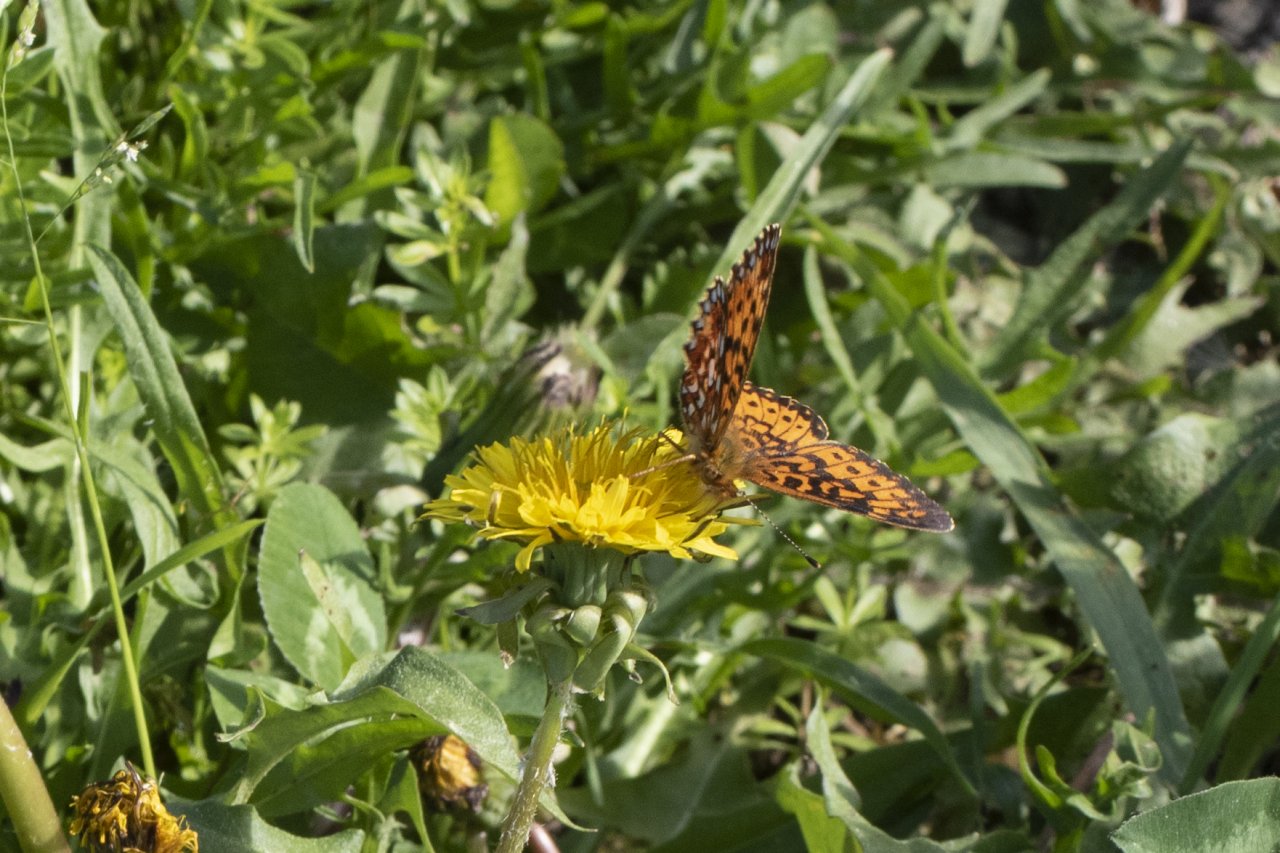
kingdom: Animalia
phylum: Arthropoda
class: Insecta
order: Lepidoptera
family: Nymphalidae
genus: Boloria
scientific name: Boloria selene
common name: Silver-bordered Fritillary
